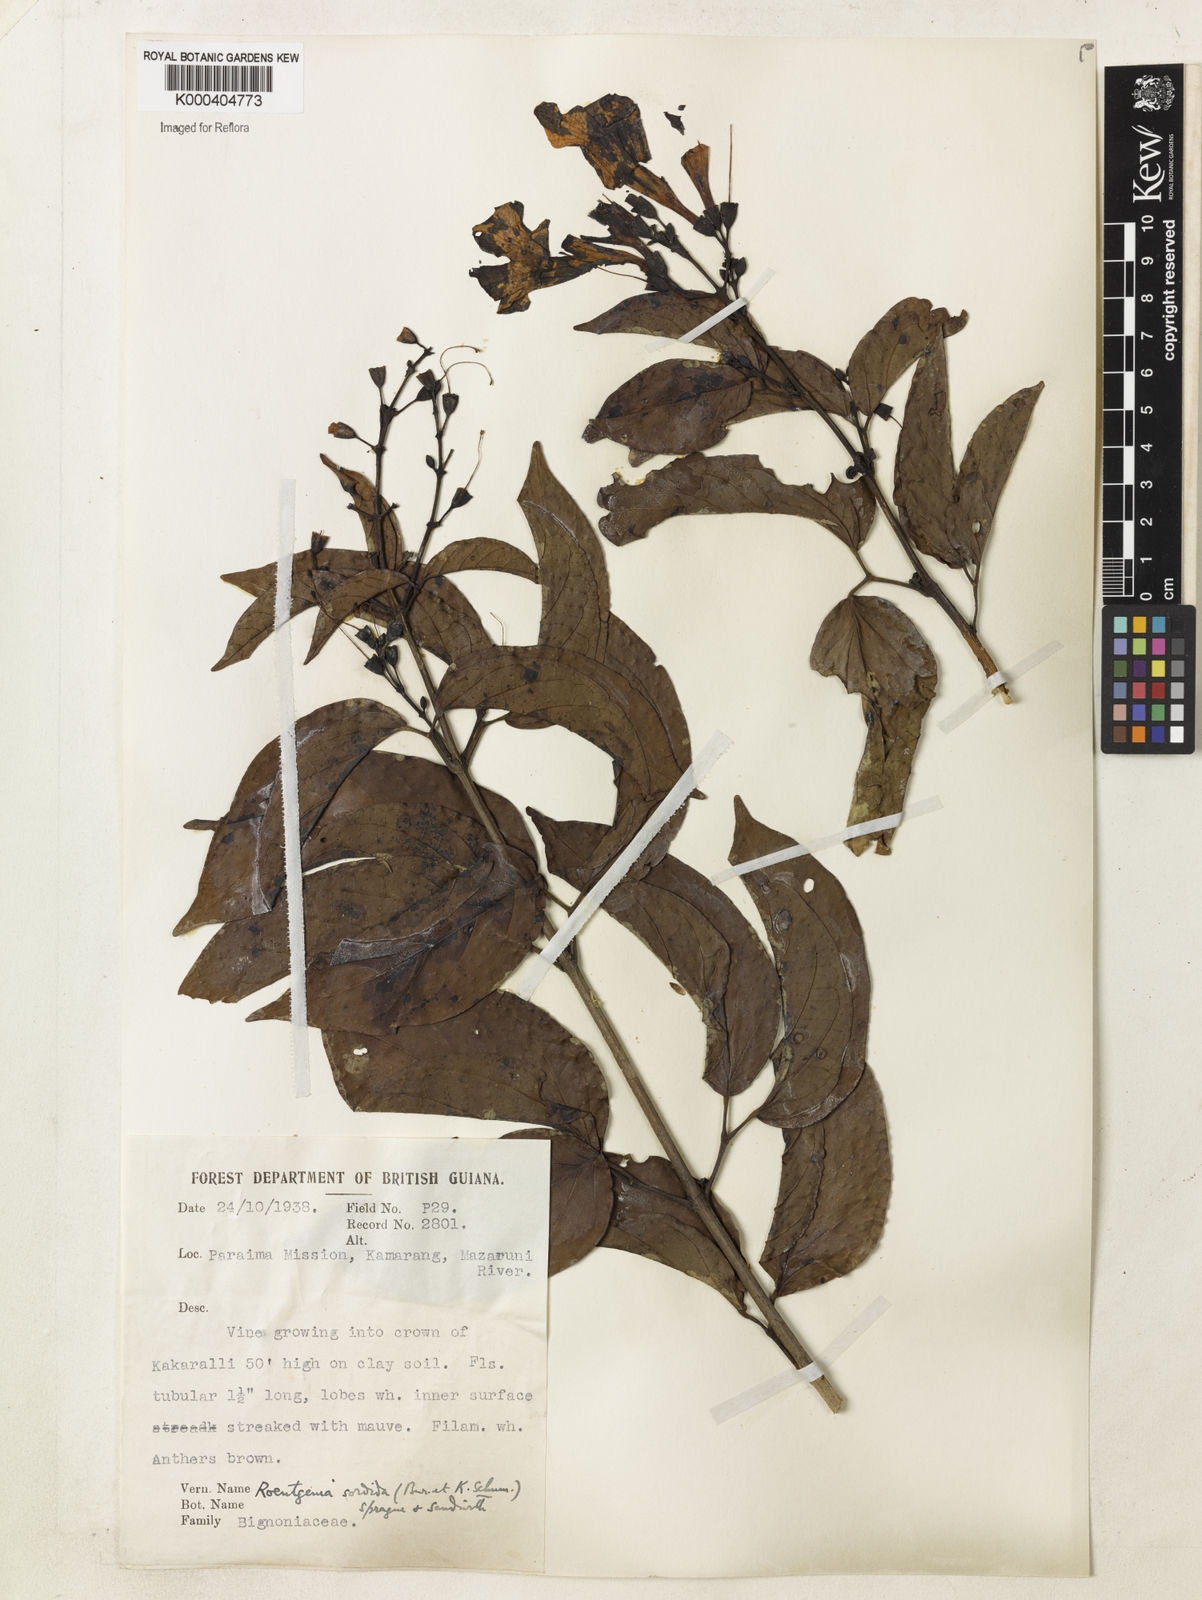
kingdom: Plantae
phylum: Tracheophyta
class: Magnoliopsida
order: Lamiales
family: Bignoniaceae
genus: Bignonia
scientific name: Bignonia sordida
